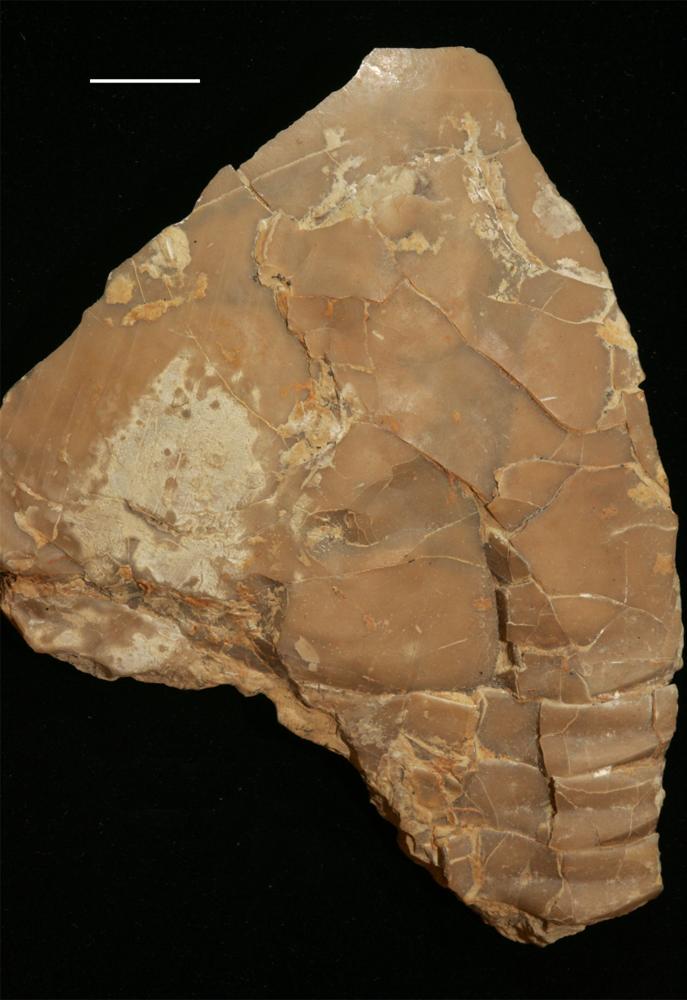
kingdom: Animalia
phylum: Arthropoda
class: Trilobita
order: Asaphida
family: Asaphidae
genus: Isotelus
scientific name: Isotelus
